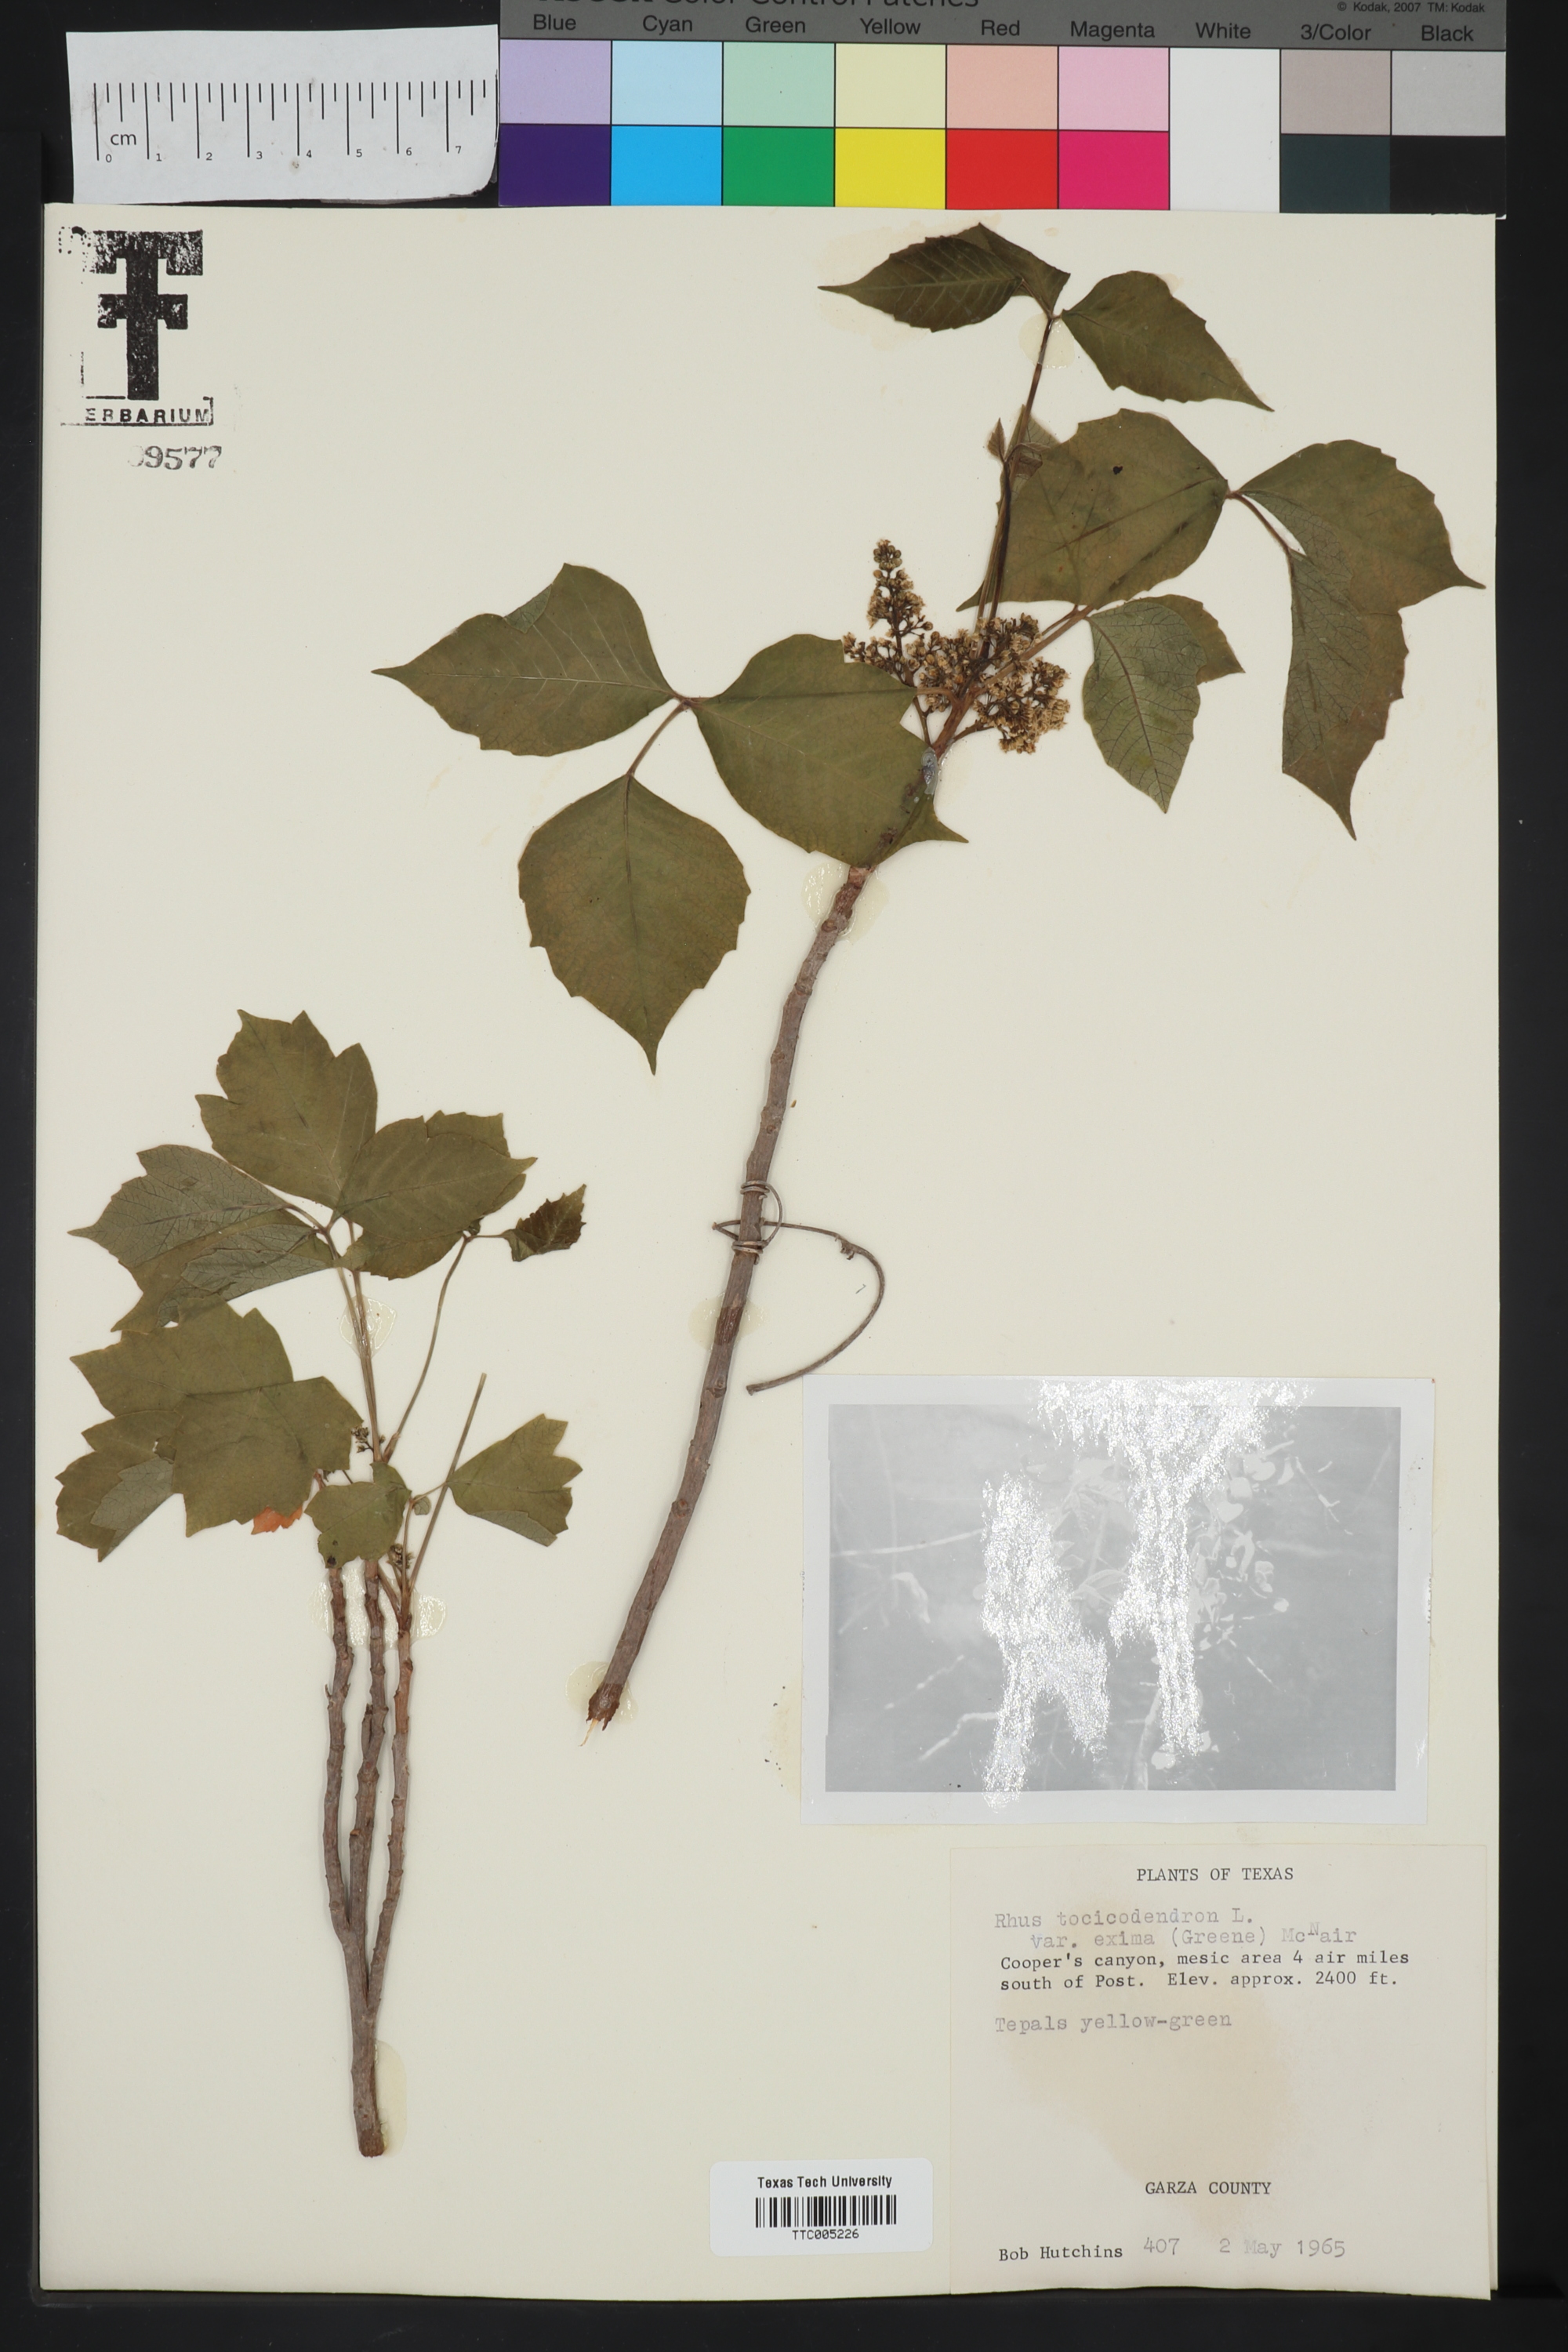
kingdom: Plantae
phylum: Tracheophyta
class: Magnoliopsida
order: Sapindales
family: Anacardiaceae
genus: Toxicodendron
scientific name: Toxicodendron radicans
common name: Poison ivy
